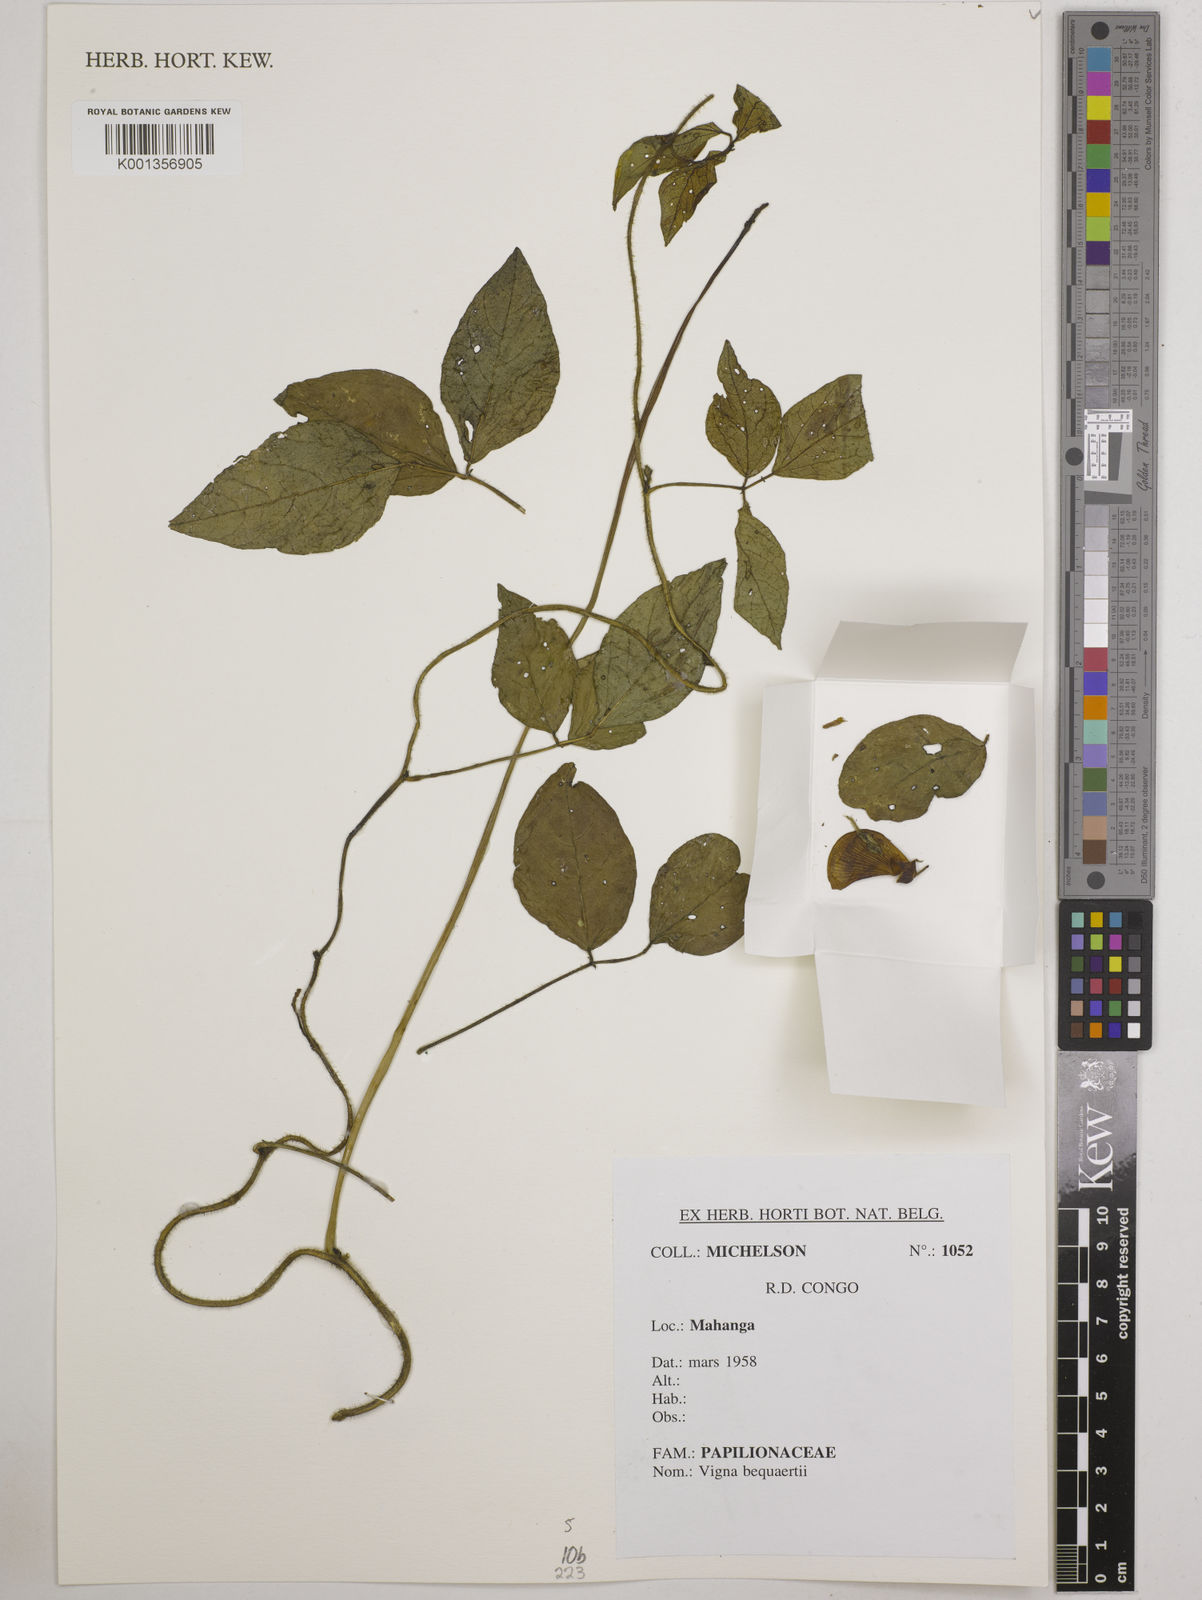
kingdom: Plantae
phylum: Tracheophyta
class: Magnoliopsida
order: Fabales
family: Fabaceae
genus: Vigna
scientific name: Vigna bequaertii
